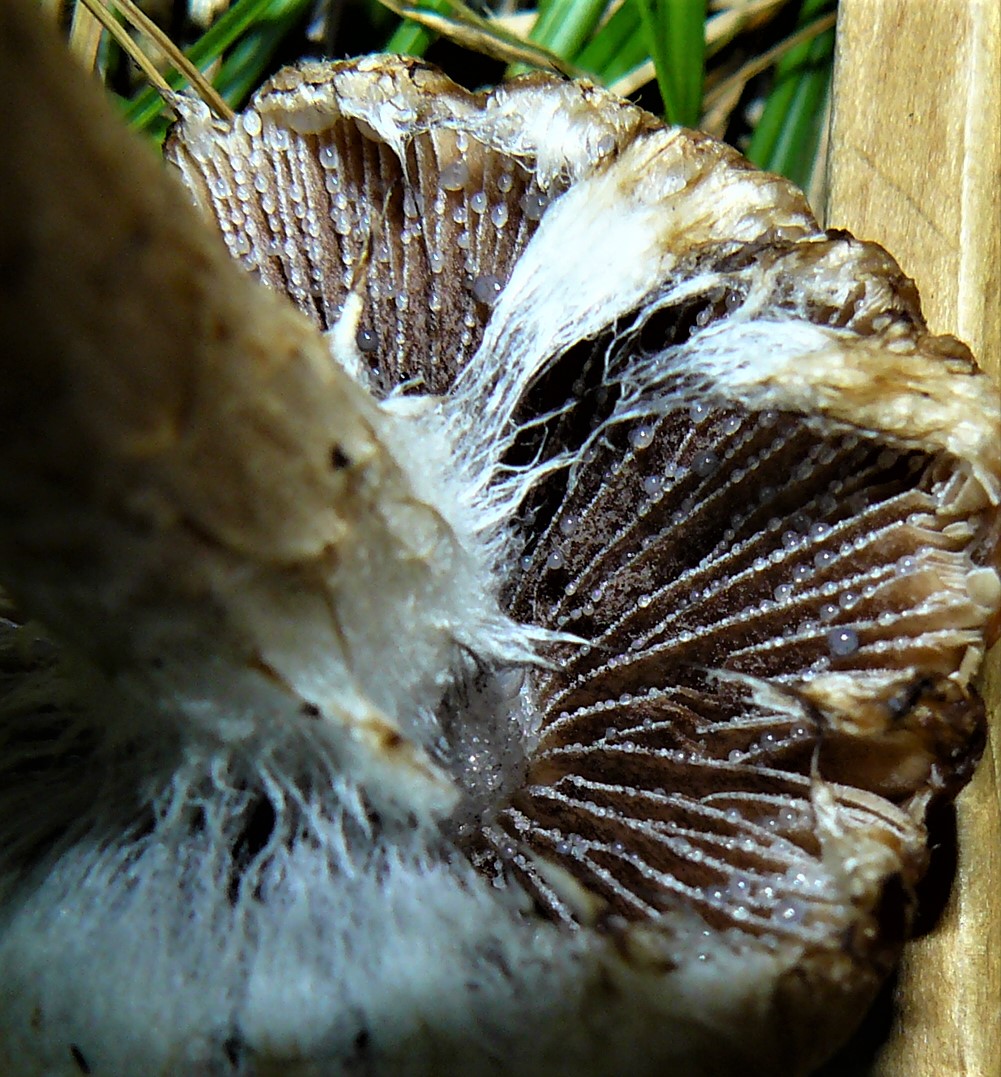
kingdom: Fungi
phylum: Basidiomycota
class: Agaricomycetes
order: Agaricales
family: Psathyrellaceae
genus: Lacrymaria
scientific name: Lacrymaria lacrymabunda
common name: grædende mørkhat
